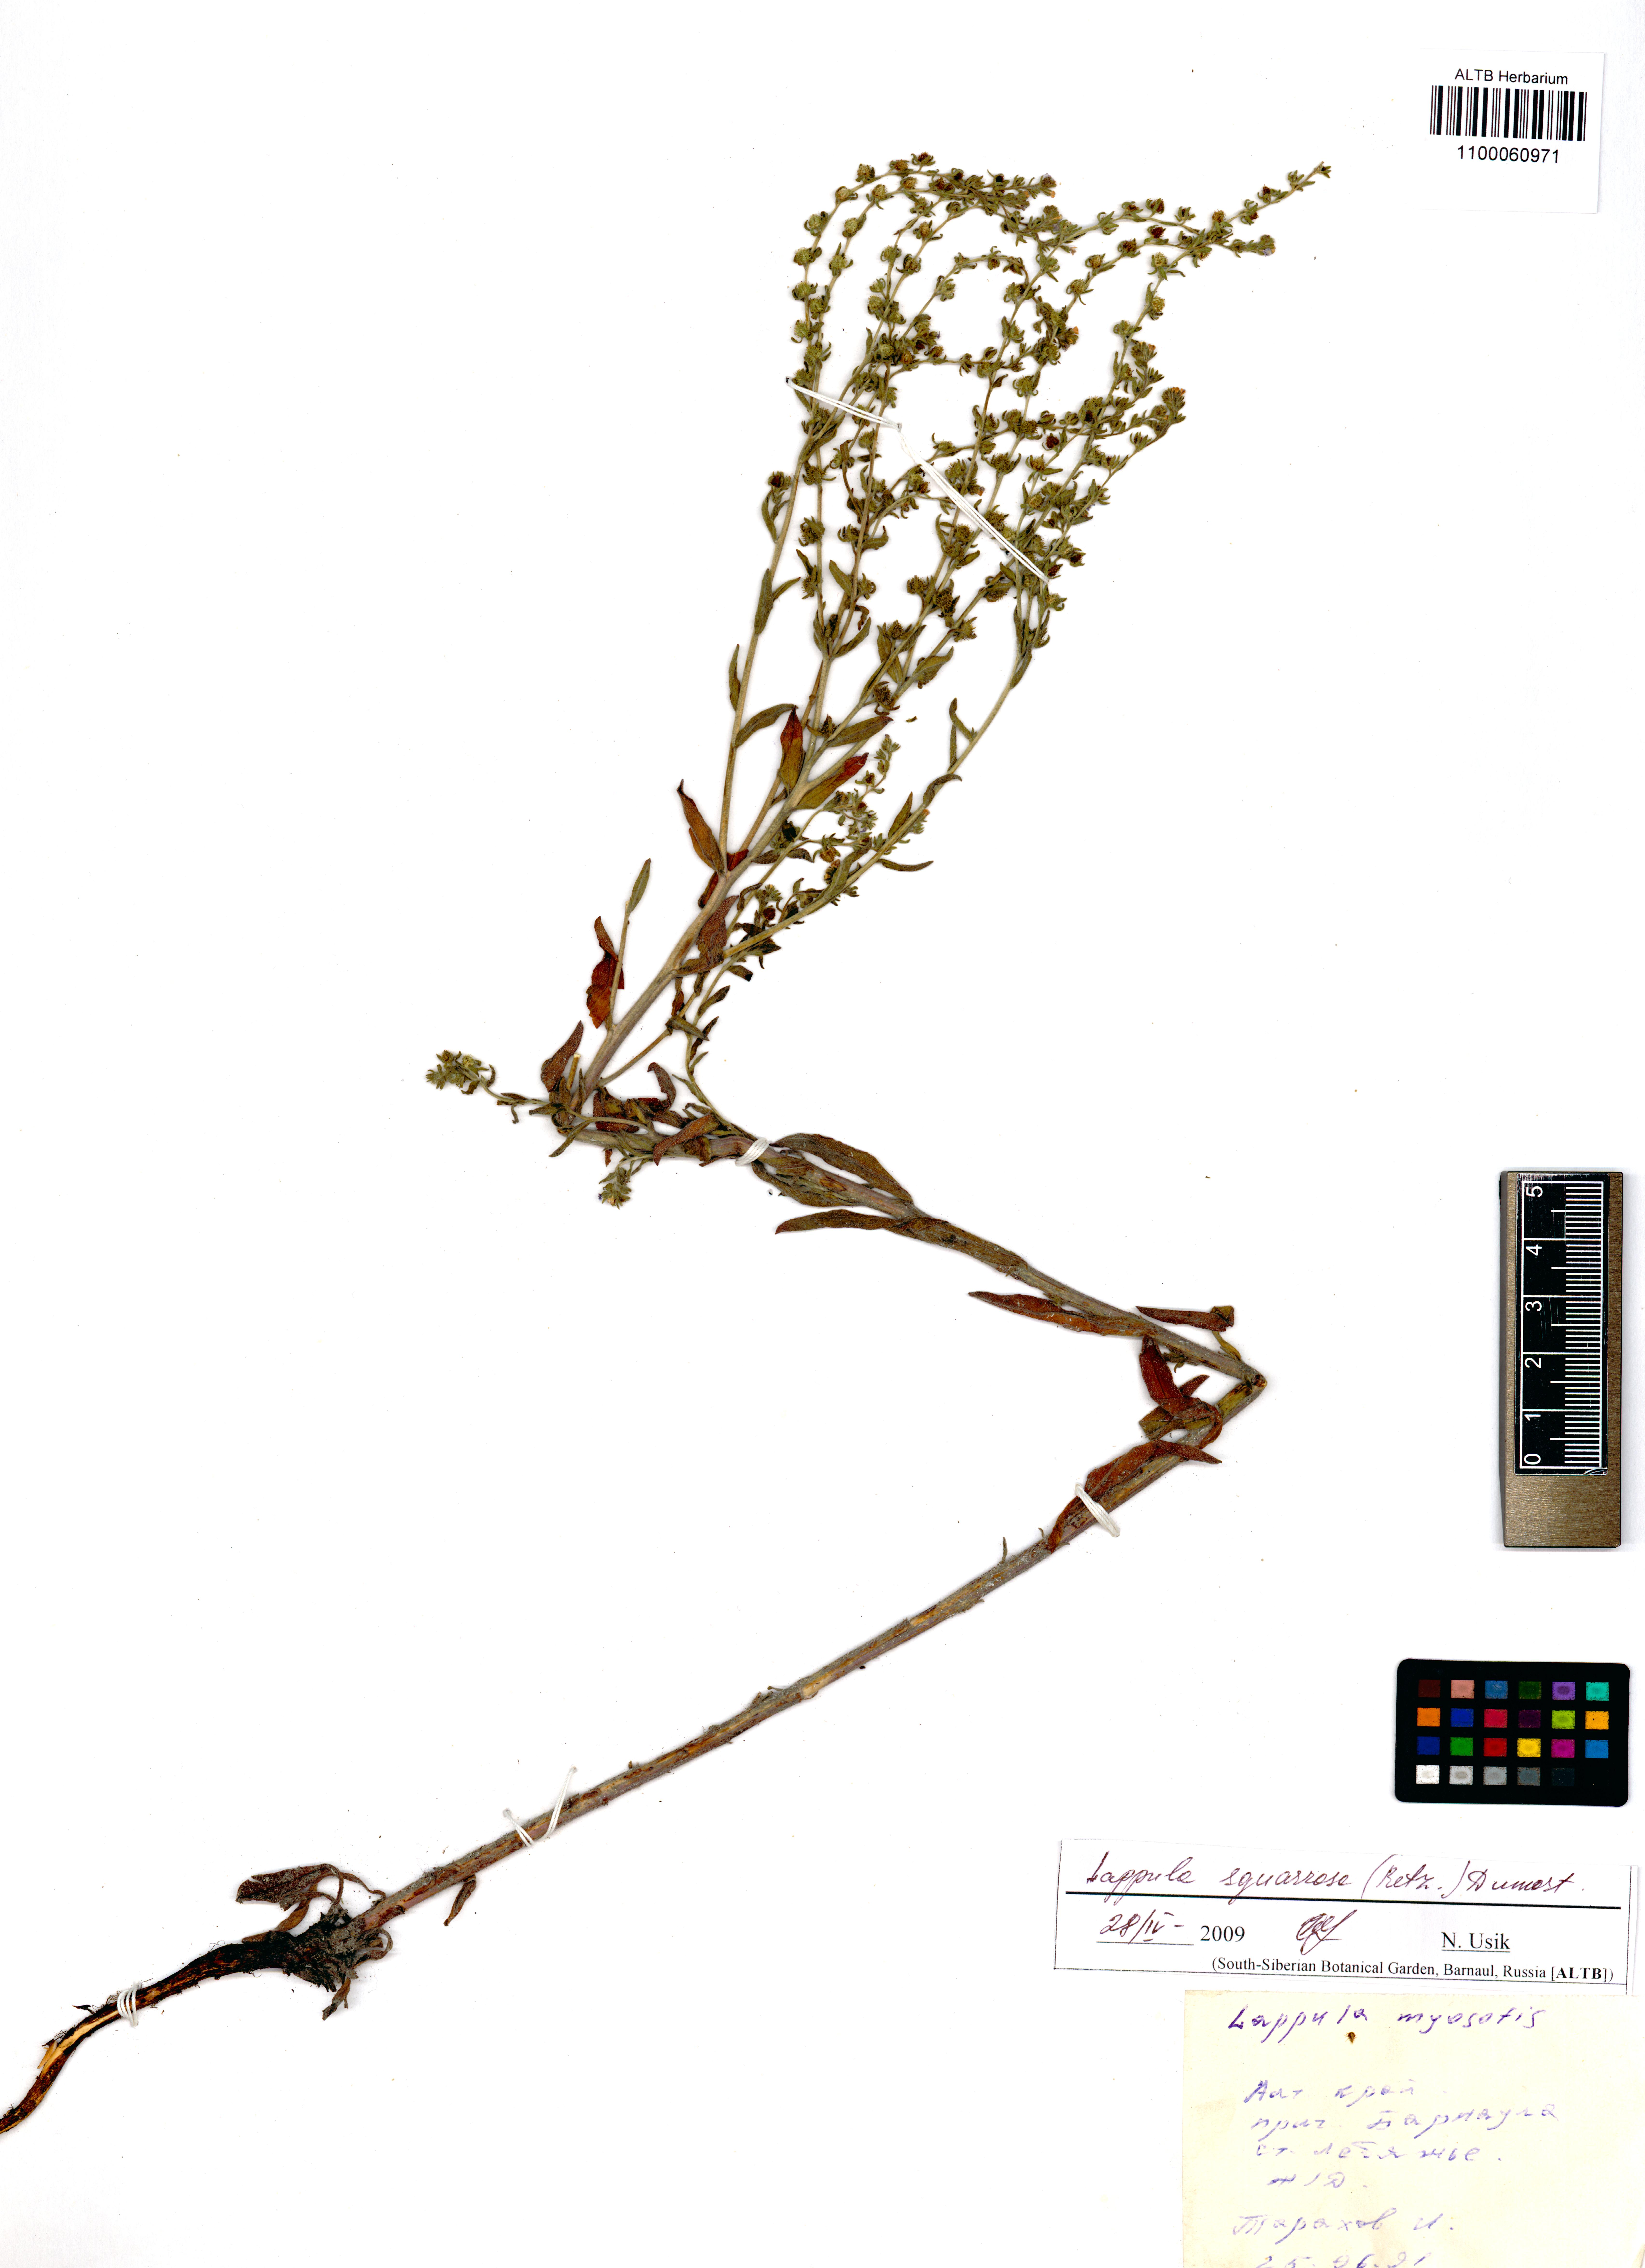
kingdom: Plantae
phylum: Tracheophyta
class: Magnoliopsida
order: Boraginales
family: Boraginaceae
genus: Lappula
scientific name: Lappula squarrosa
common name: European stickseed
